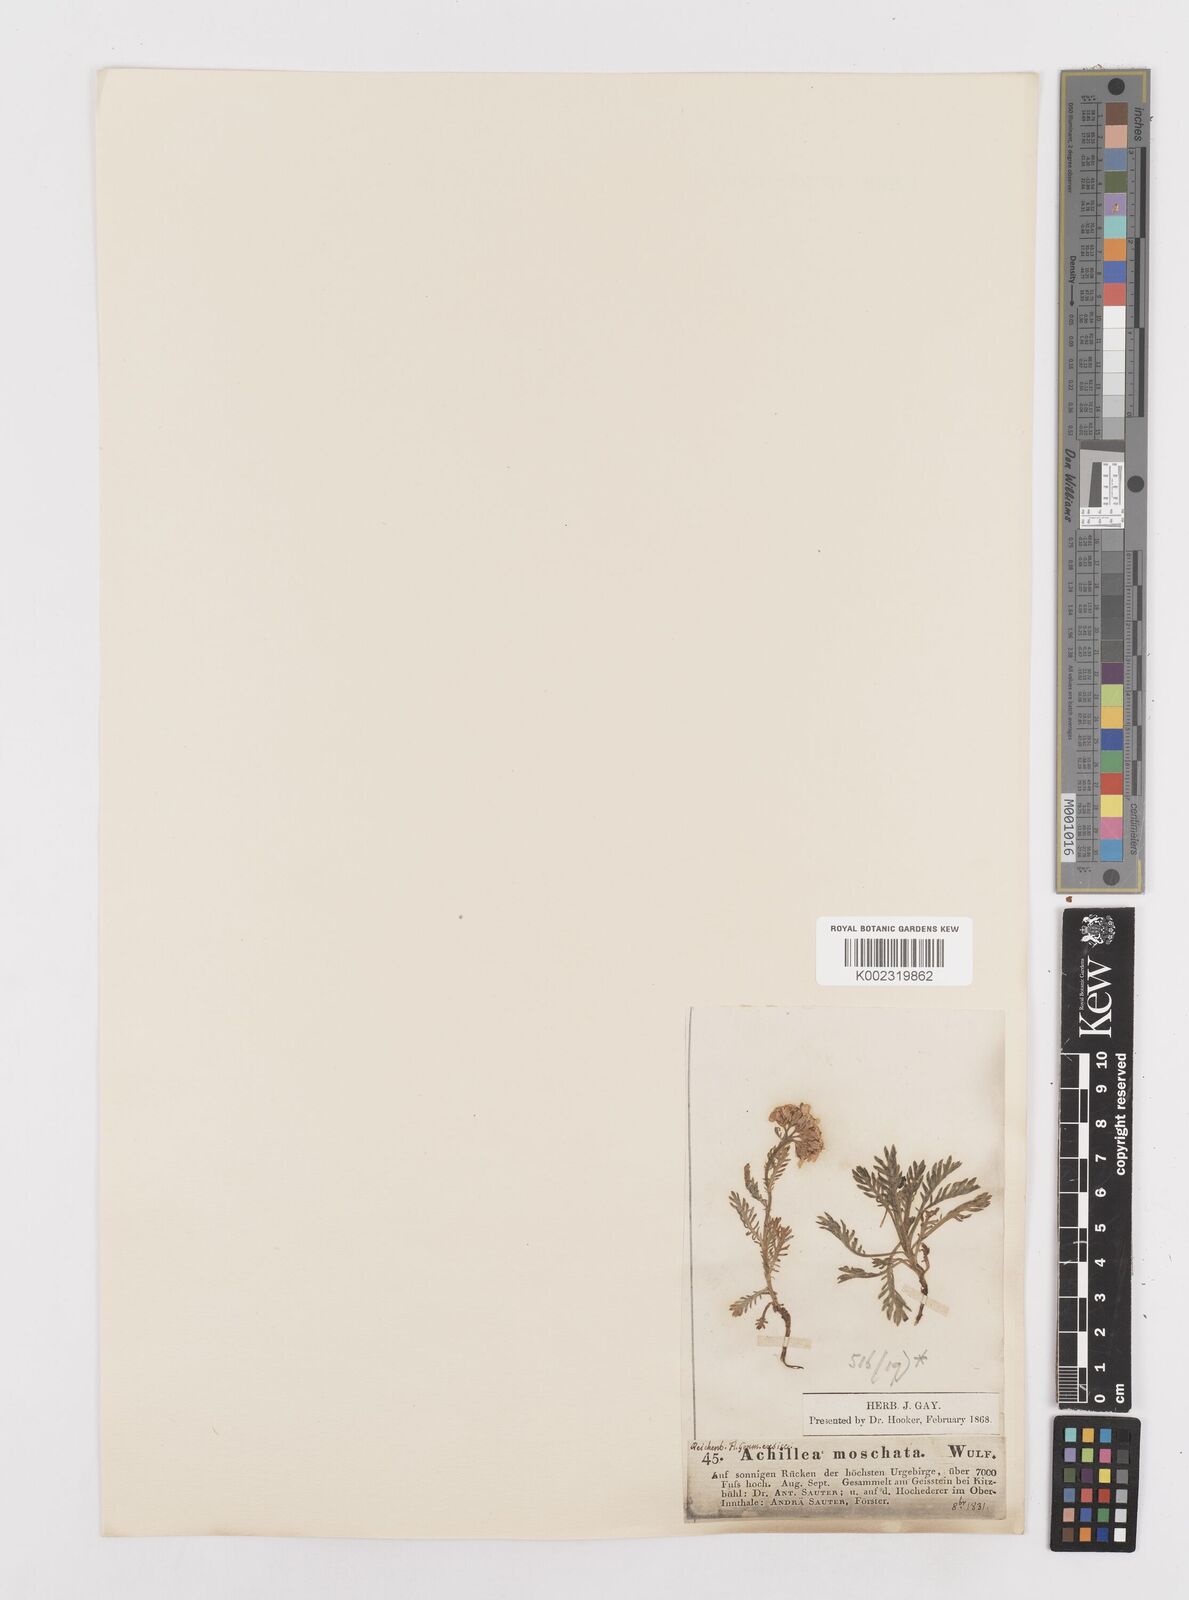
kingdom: Plantae
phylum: Tracheophyta
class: Magnoliopsida
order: Asterales
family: Asteraceae
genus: Achillea
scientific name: Achillea erba-rotta
